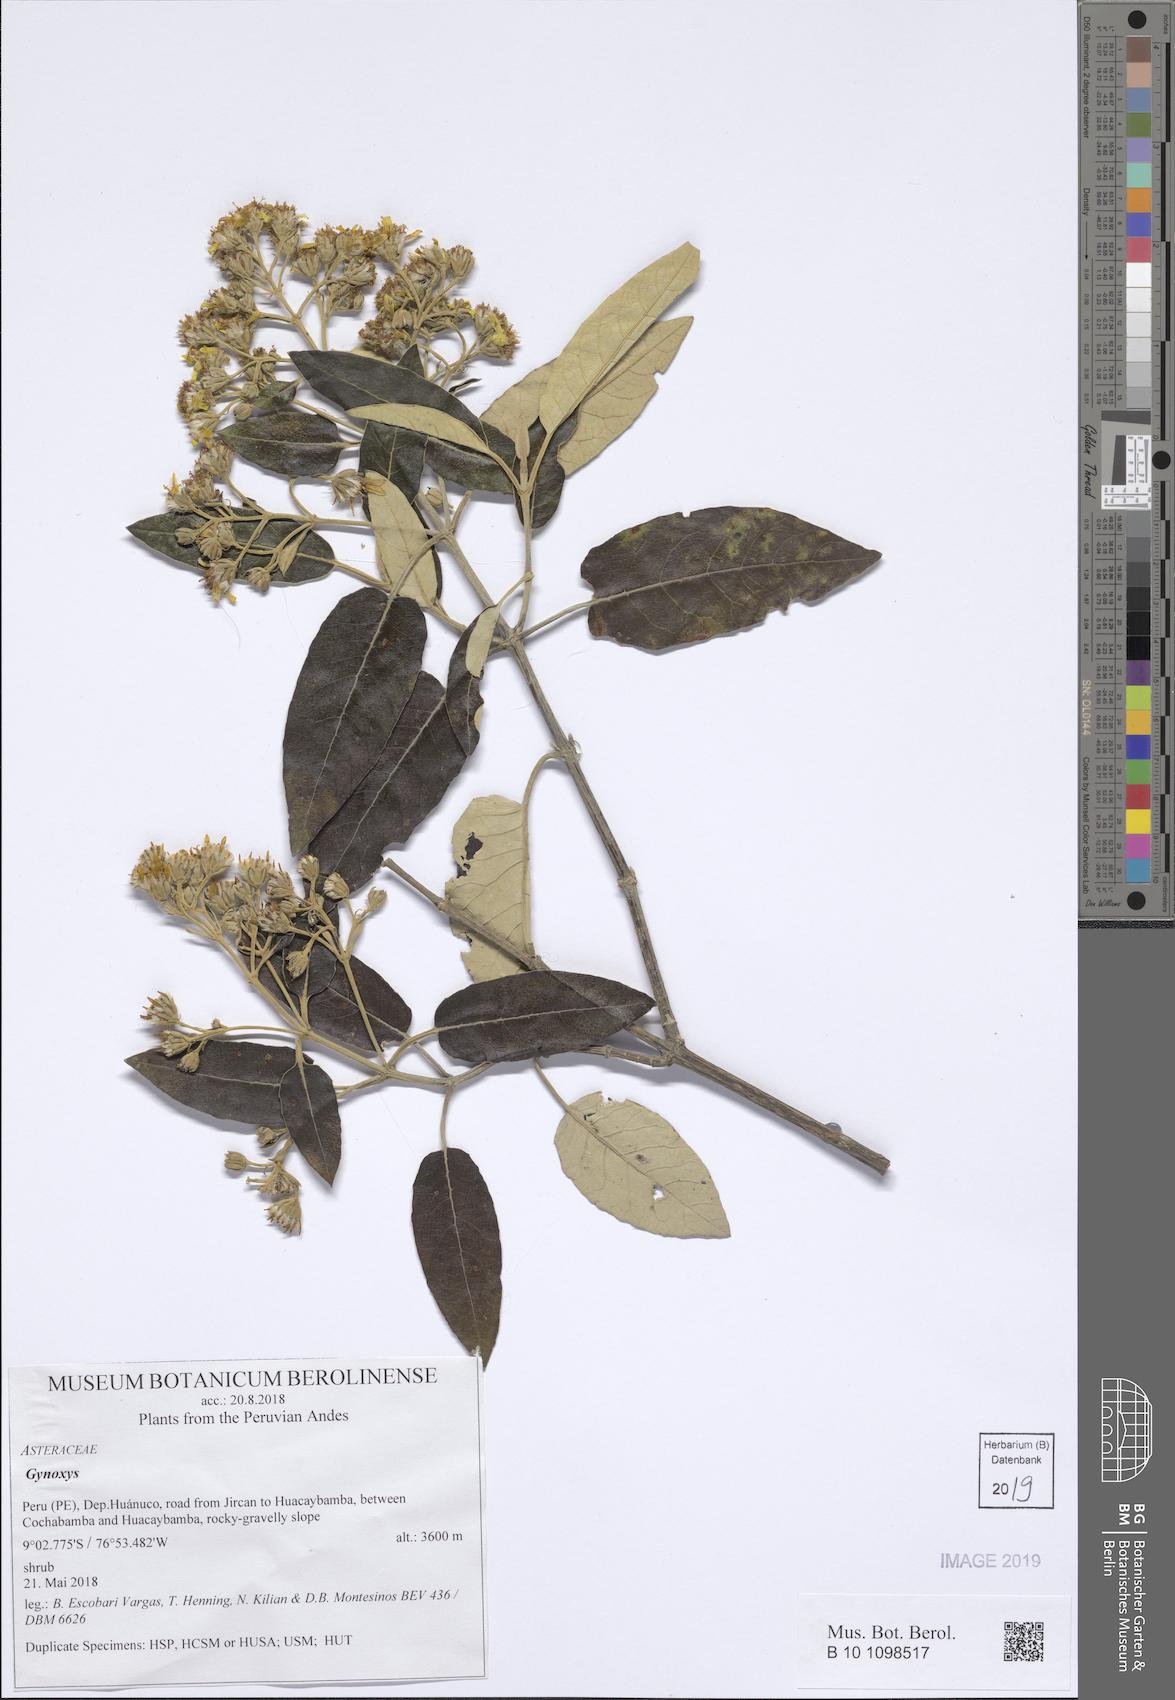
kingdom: Plantae
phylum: Tracheophyta
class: Magnoliopsida
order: Asterales
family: Asteraceae
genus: Gynoxys
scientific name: Gynoxys
